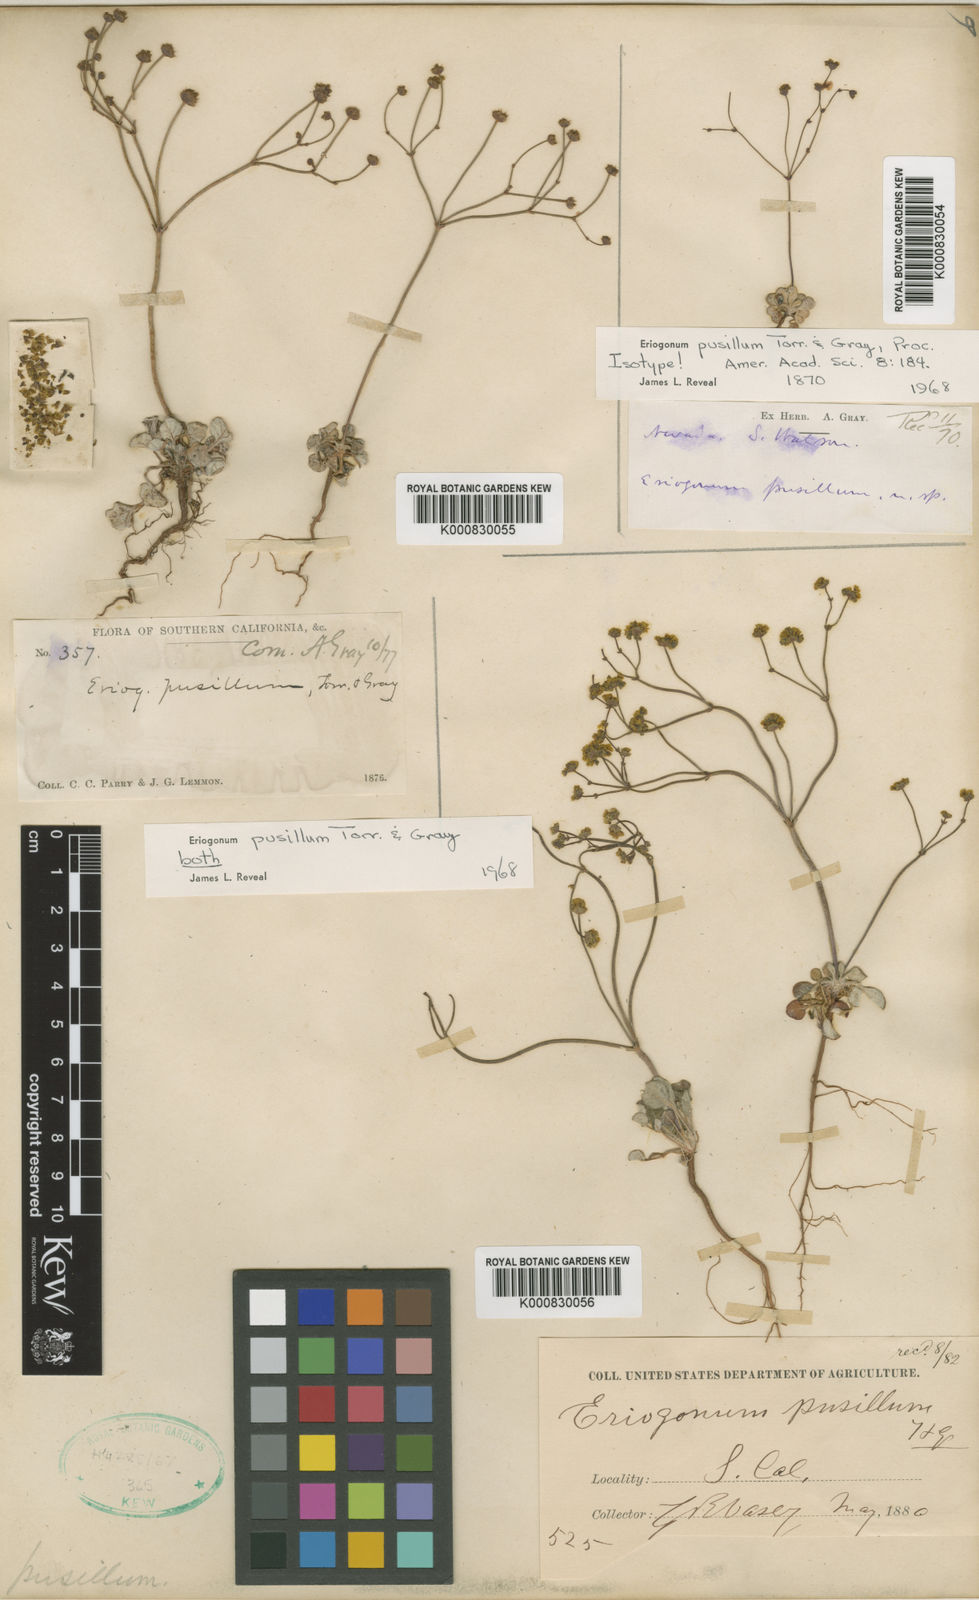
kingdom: Plantae
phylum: Tracheophyta
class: Magnoliopsida
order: Caryophyllales
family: Polygonaceae
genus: Eriogonum
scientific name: Eriogonum pusillum
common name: Yellow turbans
